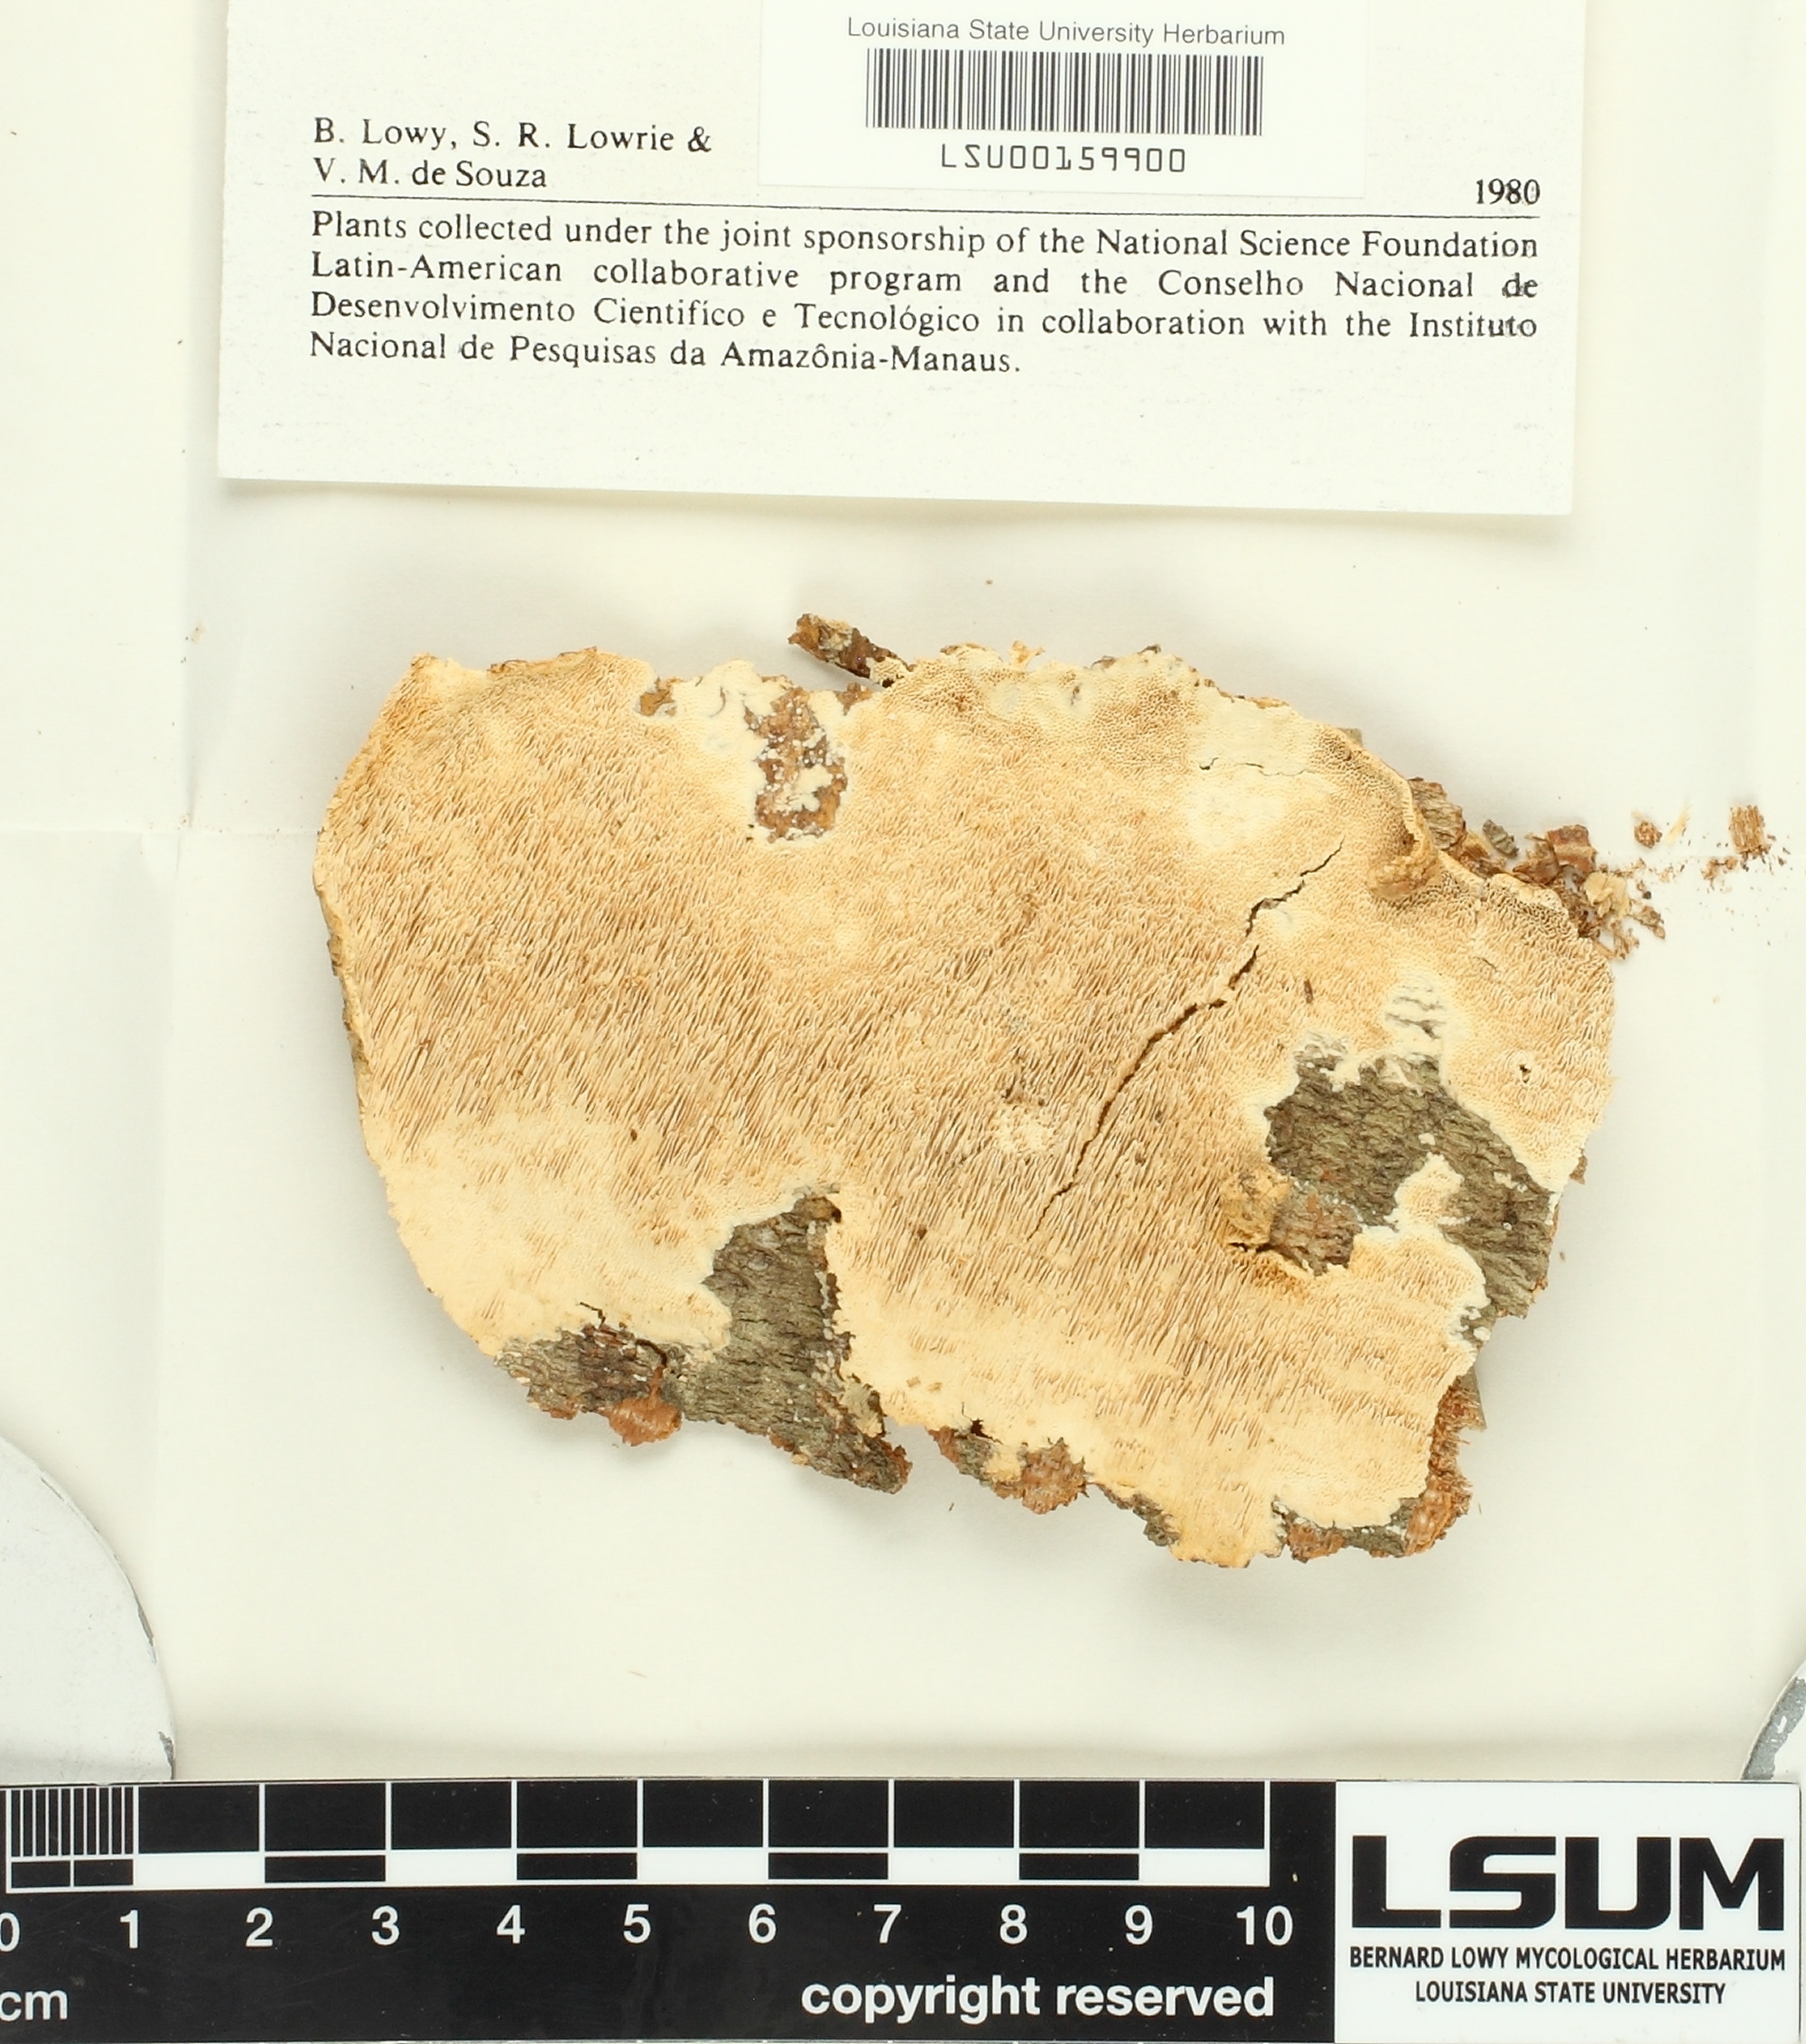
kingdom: Fungi
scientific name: Fungi
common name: Fungi
